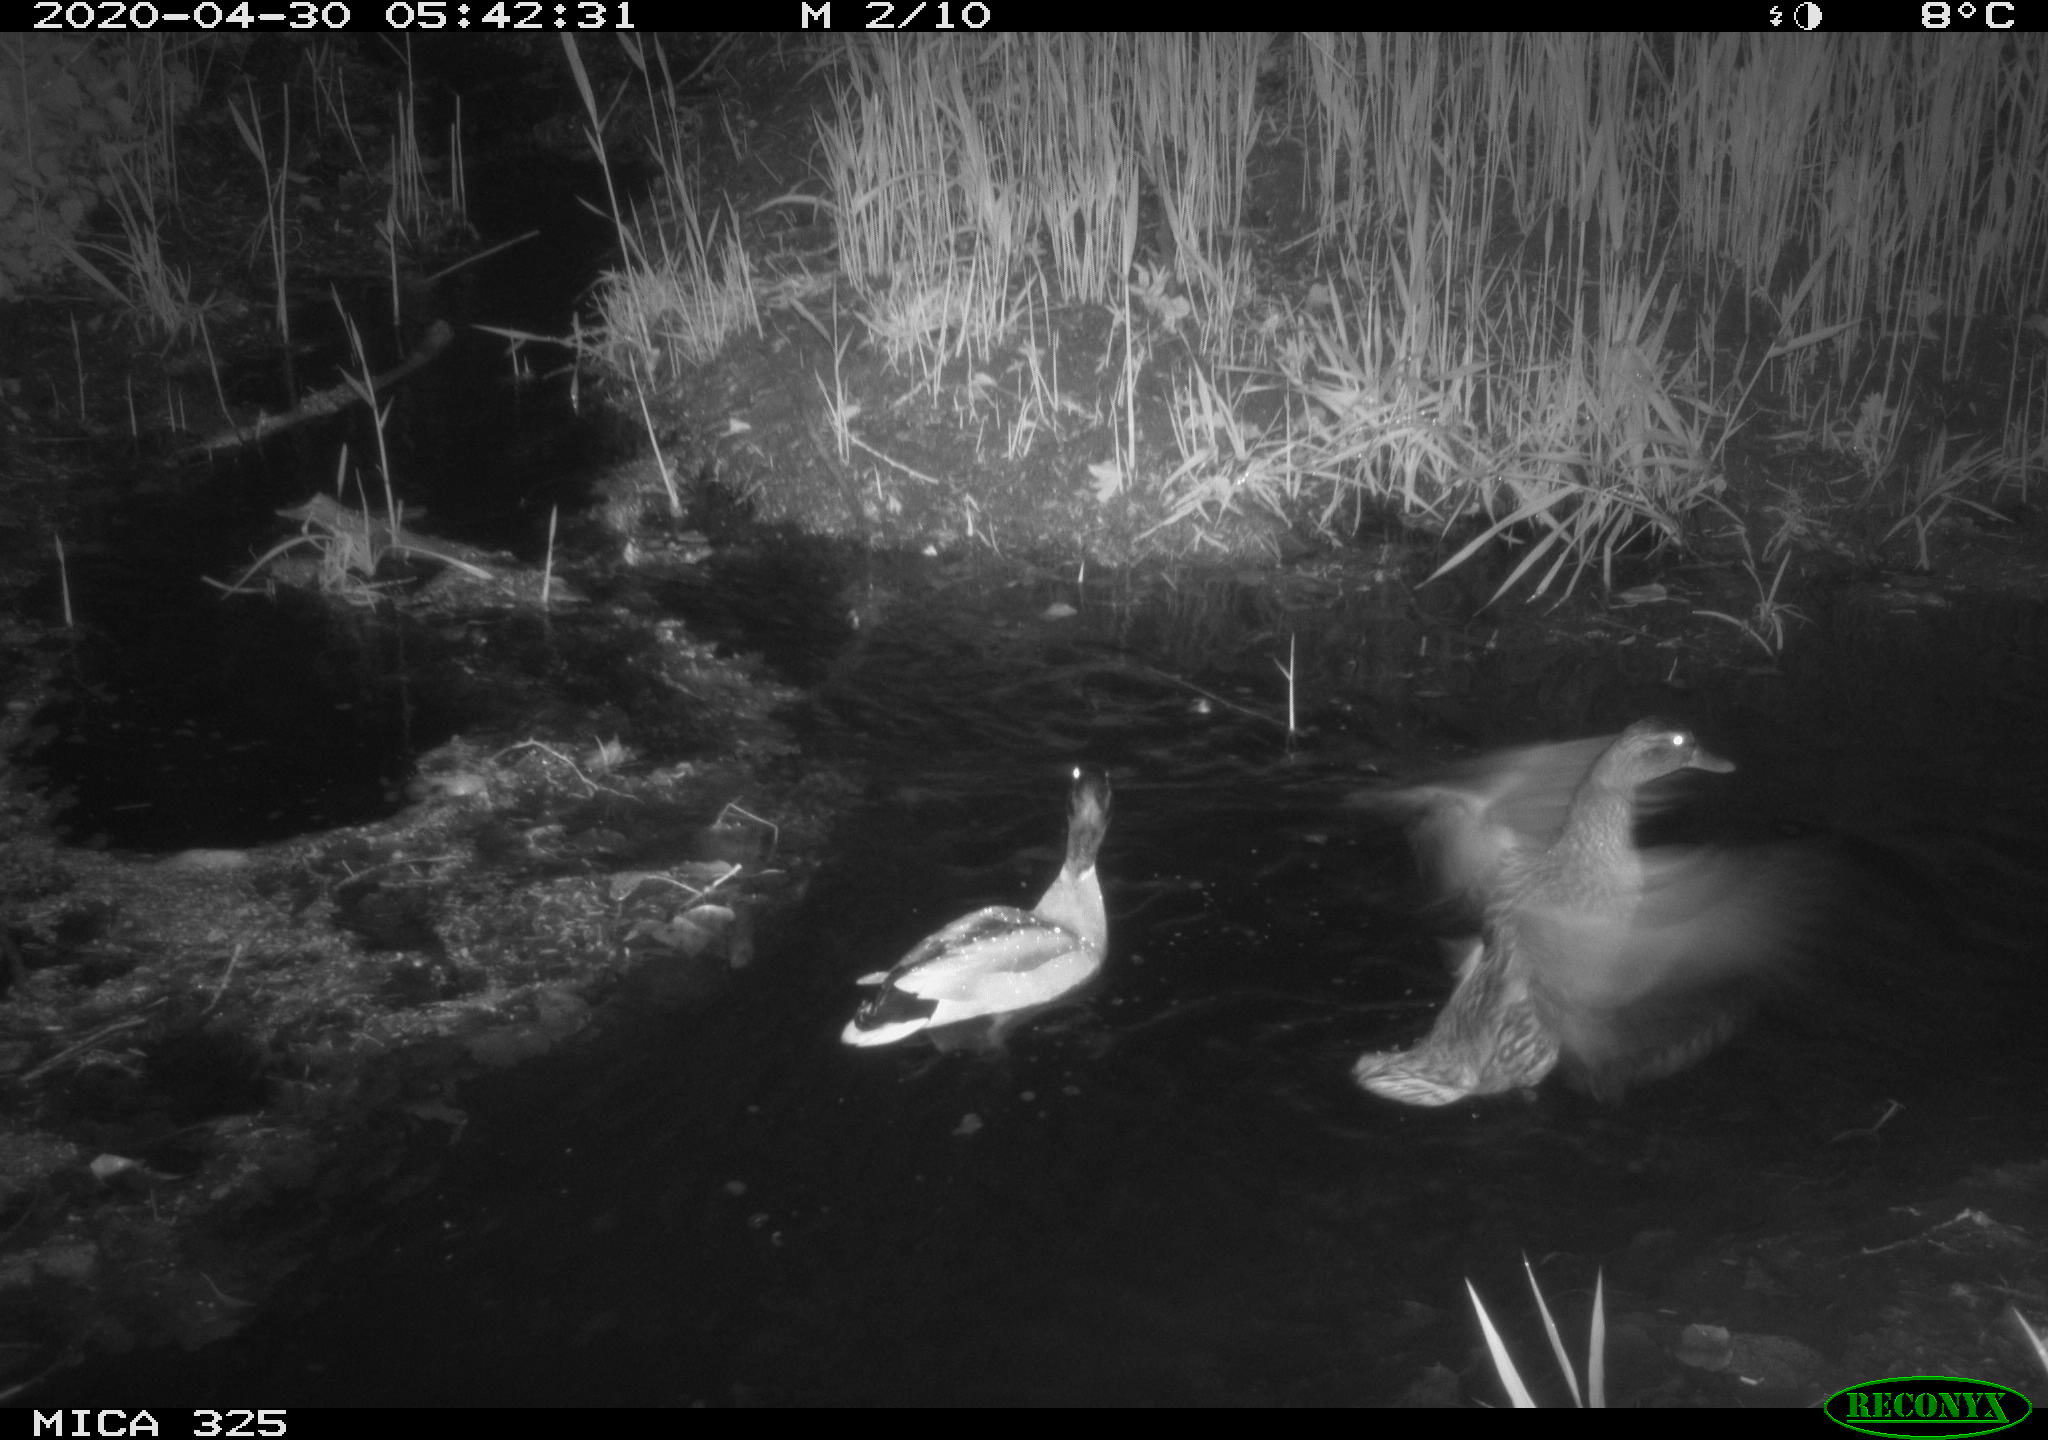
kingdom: Animalia
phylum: Chordata
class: Aves
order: Anseriformes
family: Anatidae
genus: Anas
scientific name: Anas platyrhynchos
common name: Mallard
